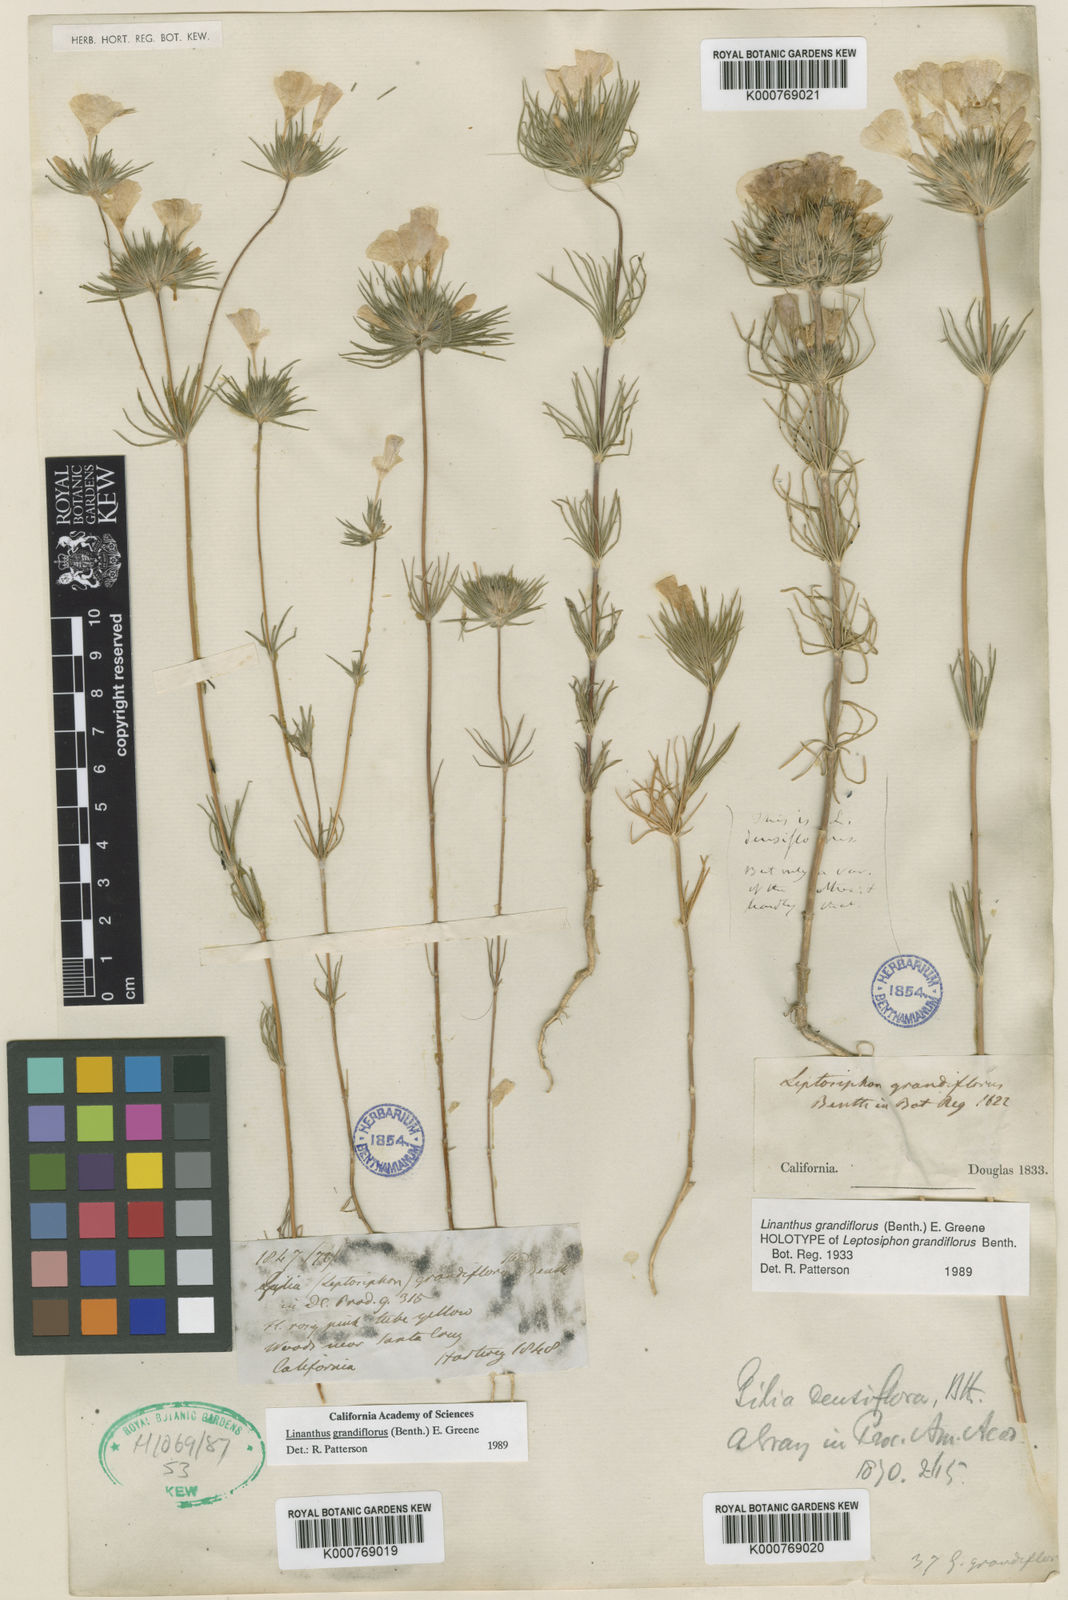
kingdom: Plantae
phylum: Tracheophyta
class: Magnoliopsida
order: Ericales
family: Polemoniaceae
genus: Leptosiphon
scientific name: Leptosiphon grandiflorus
